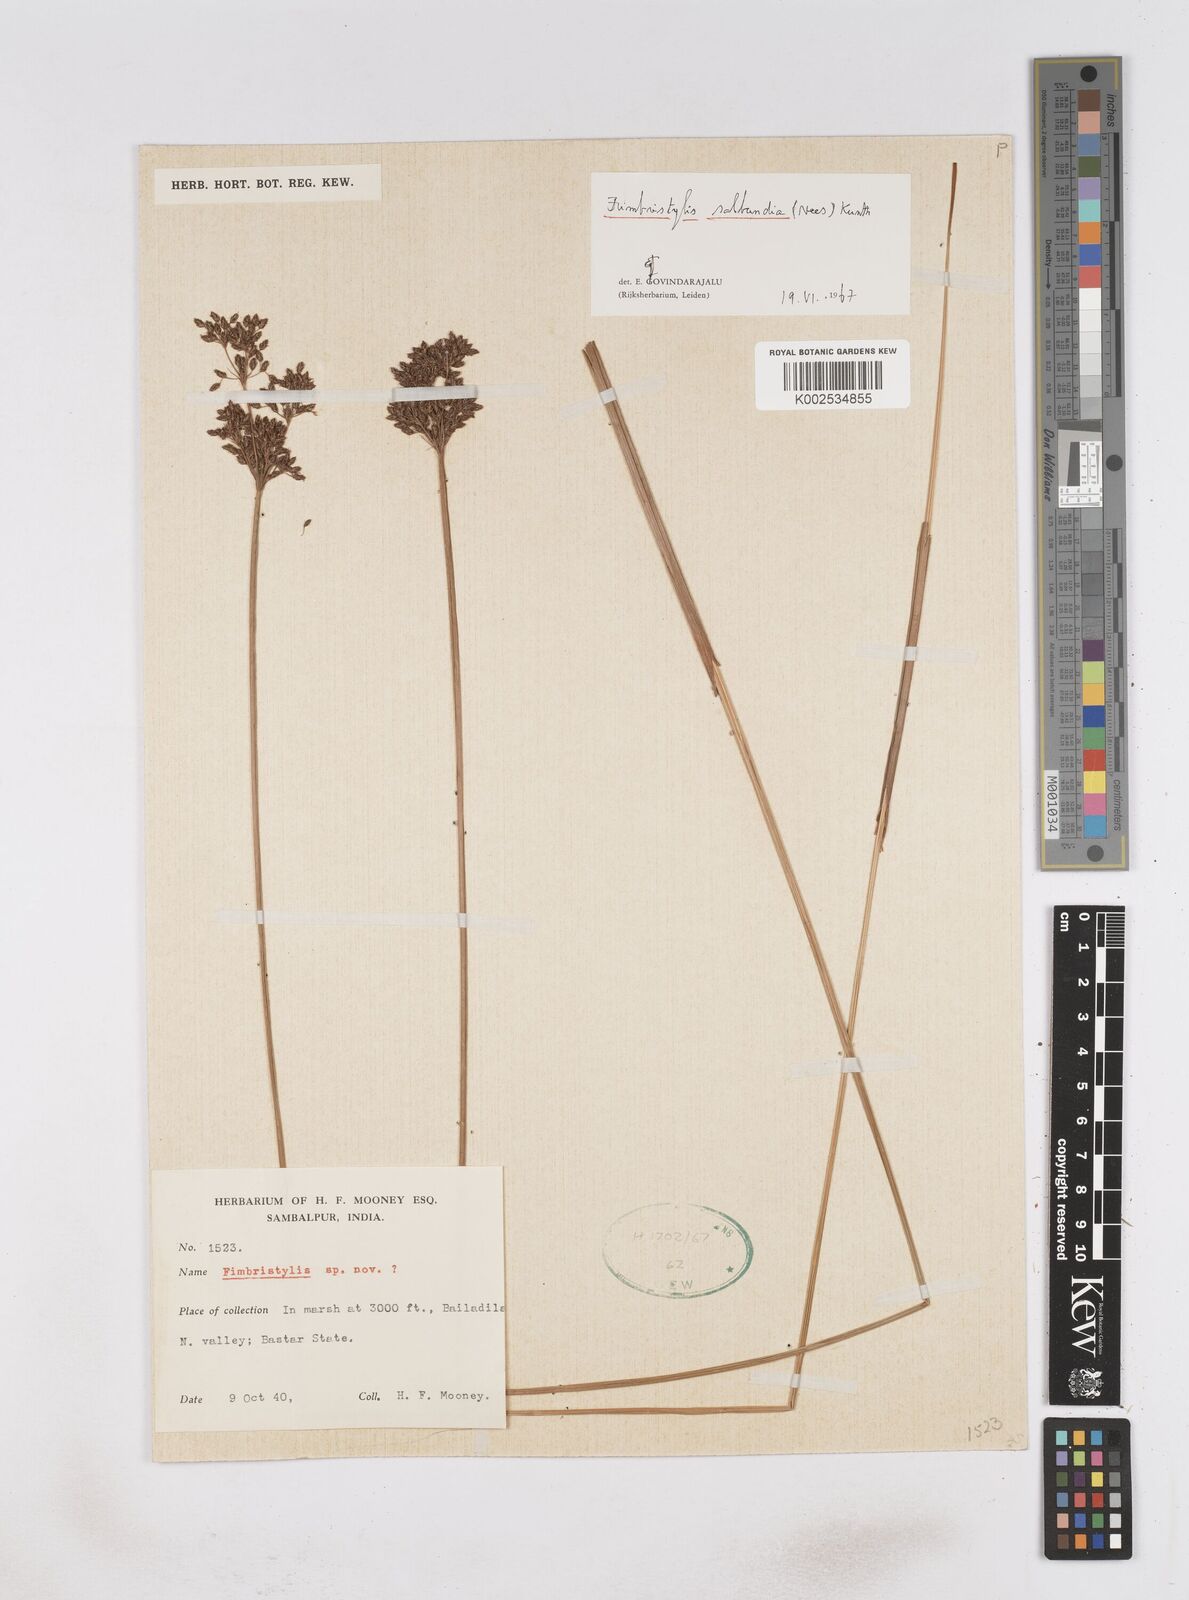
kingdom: Plantae
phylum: Tracheophyta
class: Liliopsida
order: Poales
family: Cyperaceae
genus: Fimbristylis
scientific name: Fimbristylis salbundia
